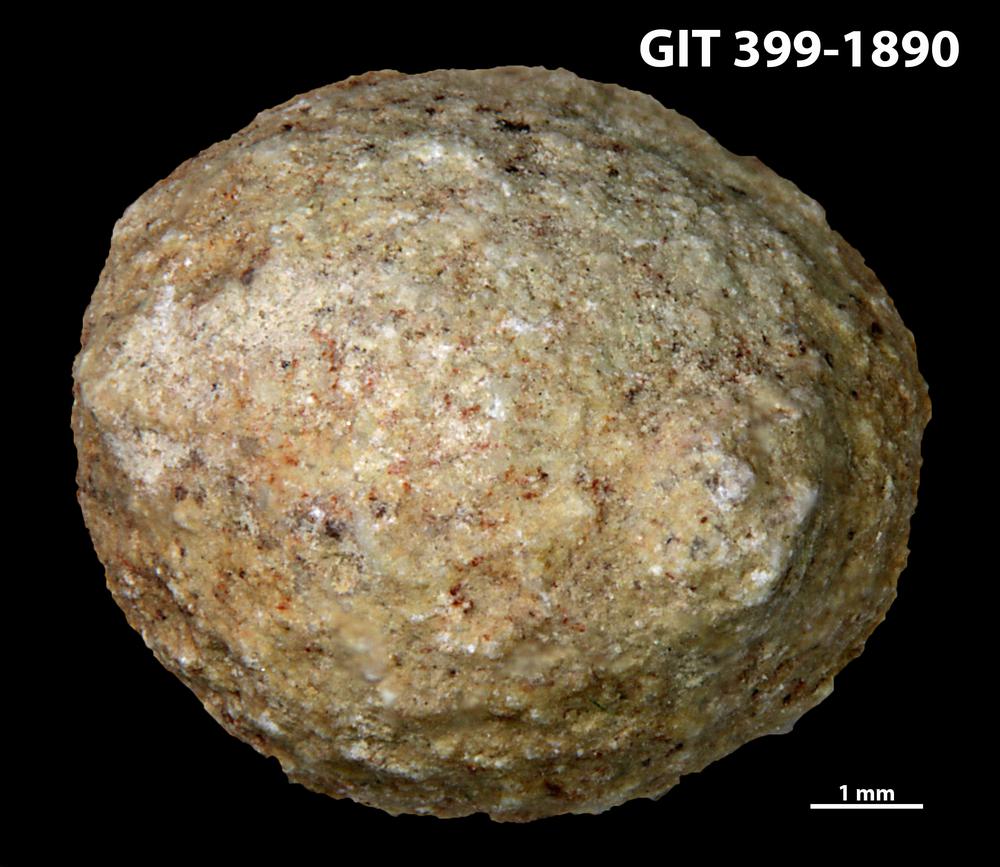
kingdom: Plantae
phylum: Chlorophyta
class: Ulvophyceae
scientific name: Ulvophyceae
